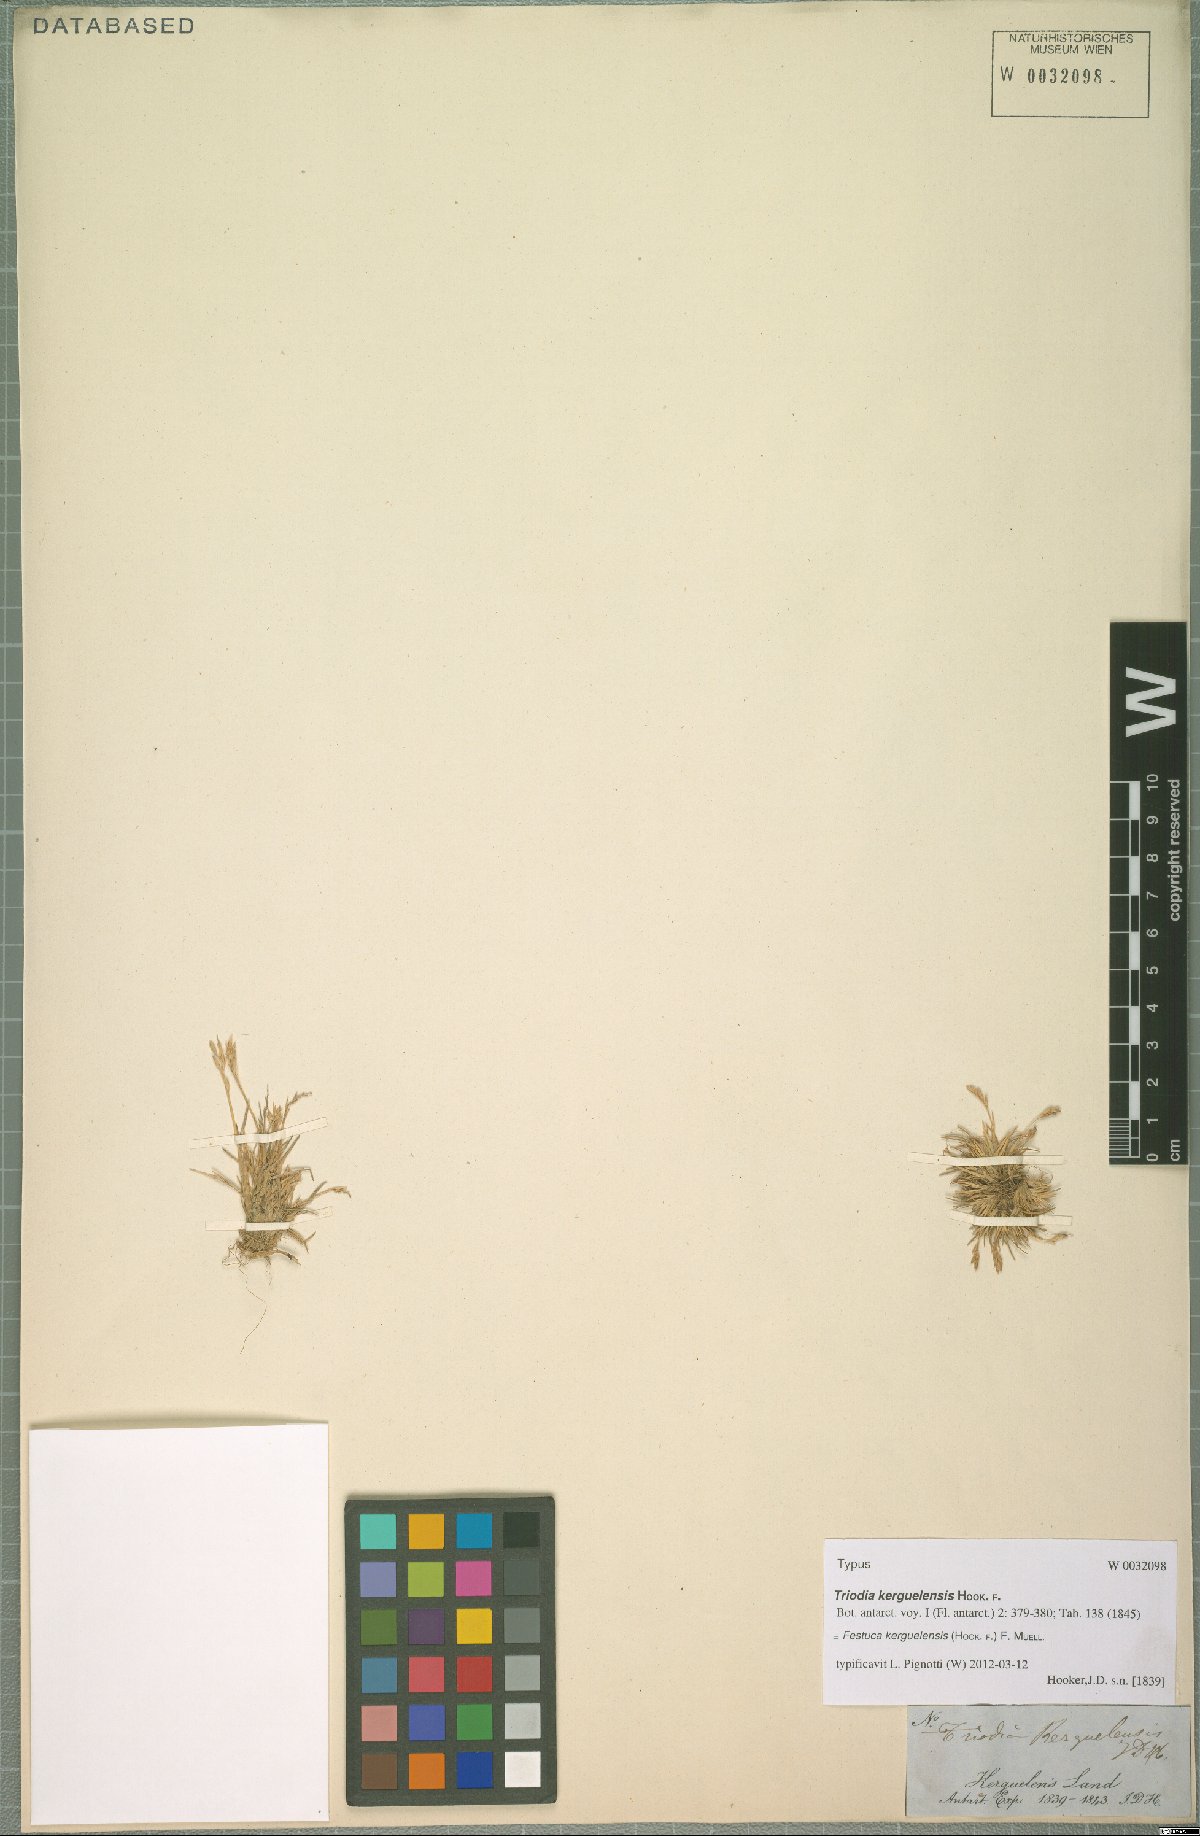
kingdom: Plantae
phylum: Tracheophyta
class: Liliopsida
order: Poales
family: Poaceae
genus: Poa
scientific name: Poa kerguelensis
